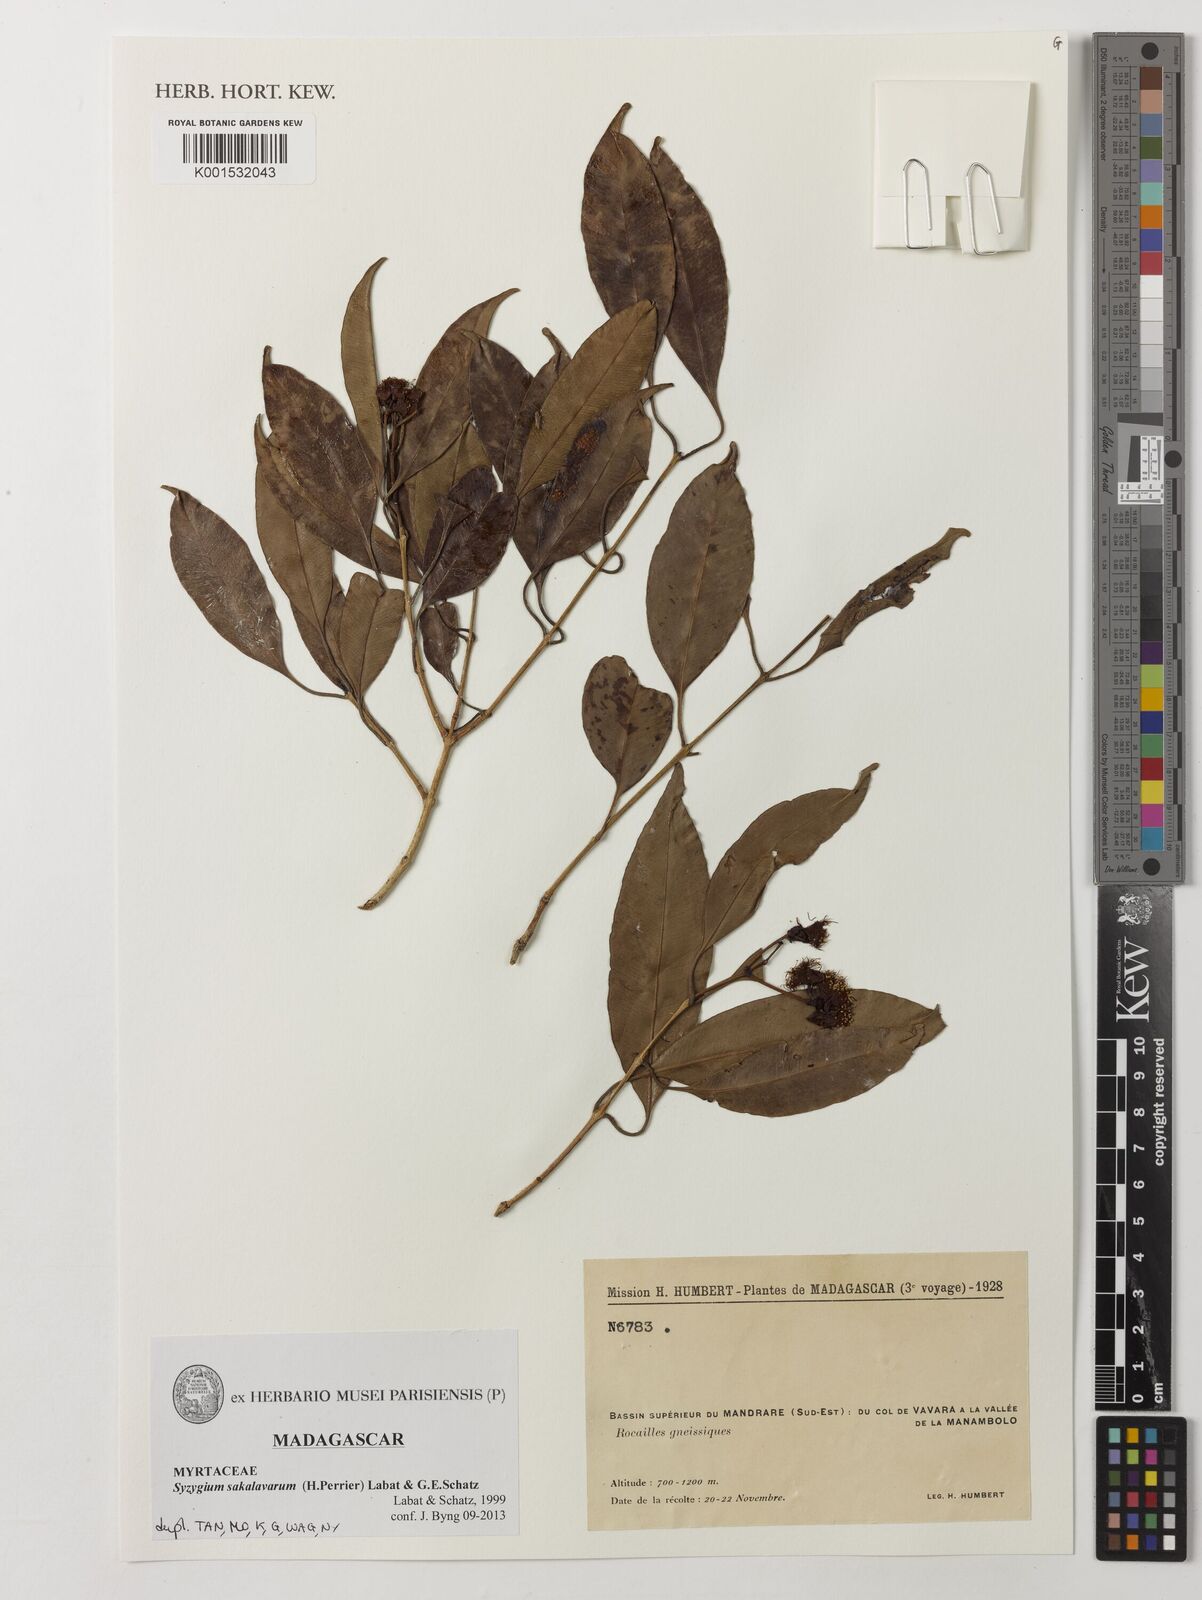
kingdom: Plantae
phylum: Tracheophyta
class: Magnoliopsida
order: Myrtales
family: Myrtaceae
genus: Syzygium
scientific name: Syzygium sakalavarum
